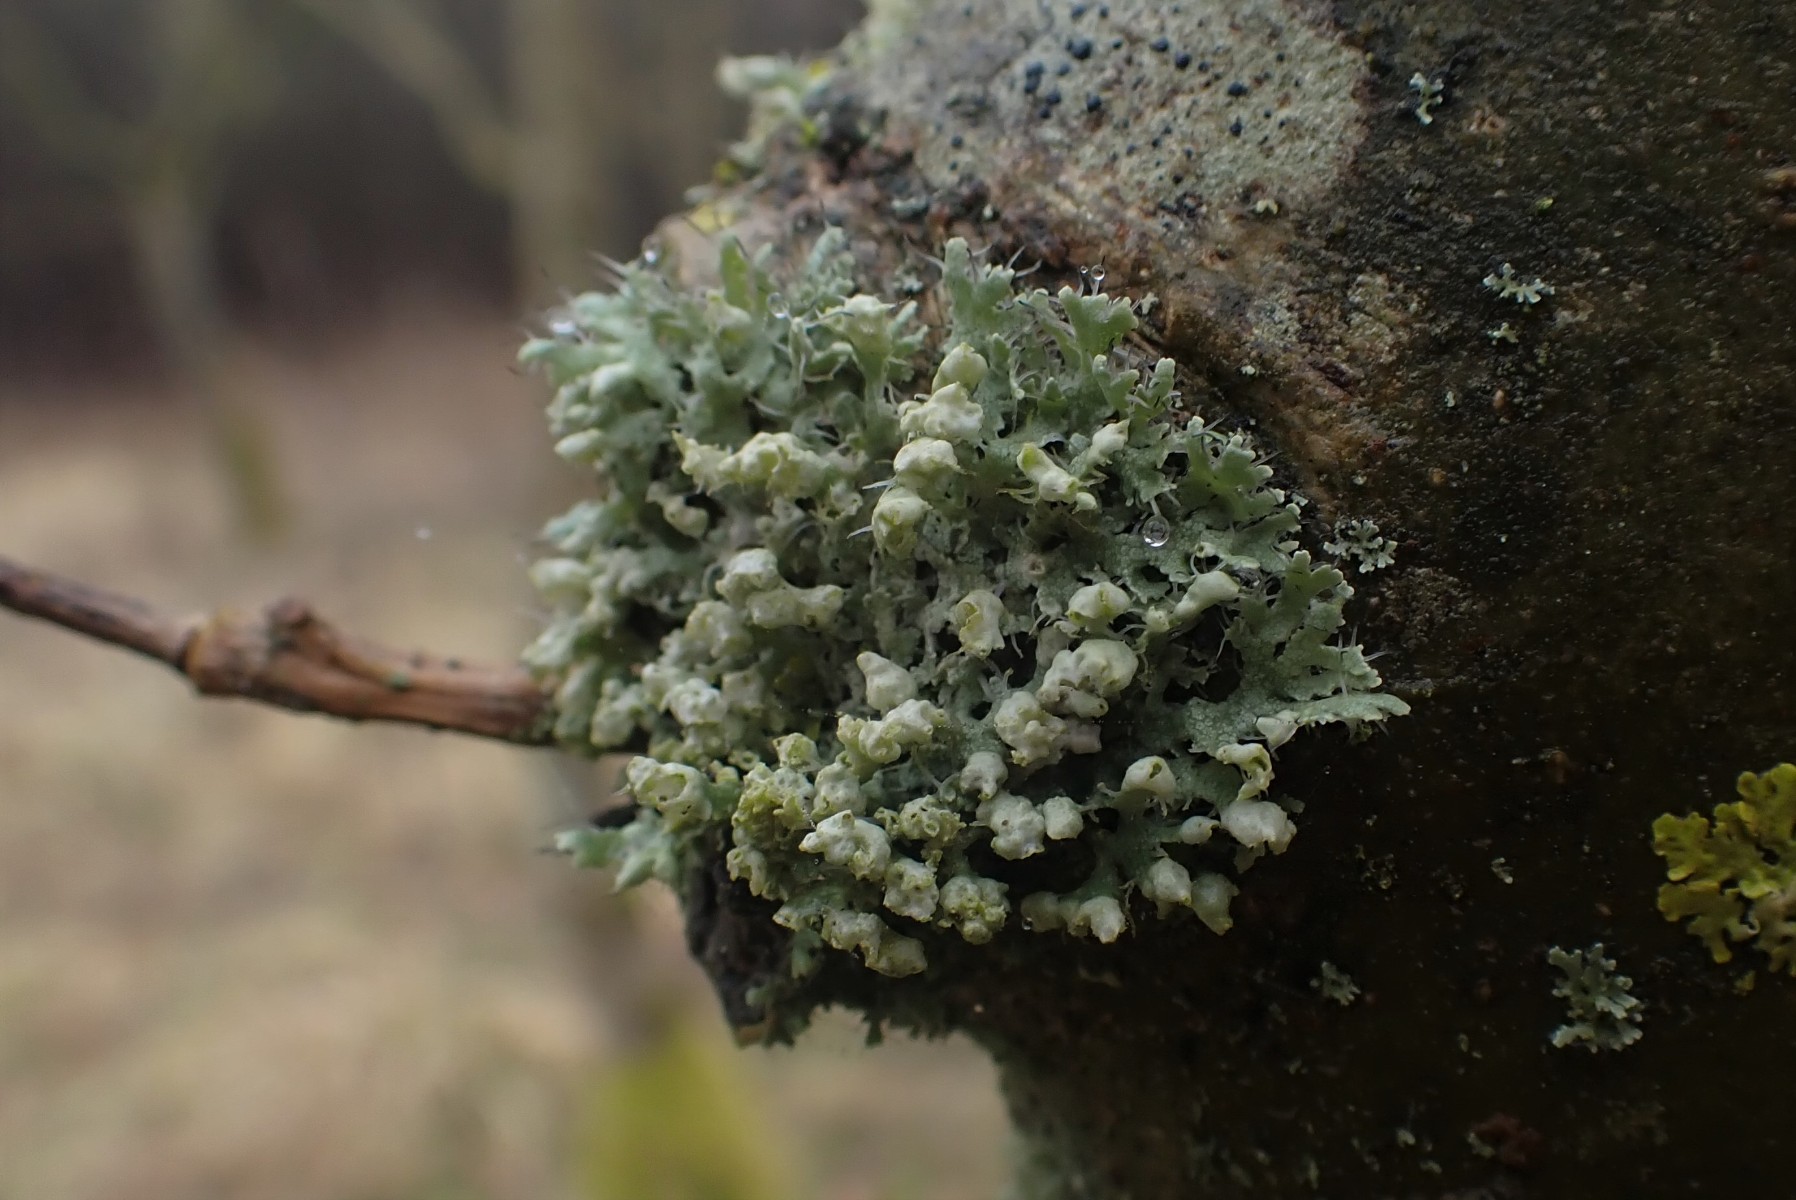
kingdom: Fungi
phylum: Ascomycota
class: Lecanoromycetes
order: Caliciales
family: Physciaceae
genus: Physcia
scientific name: Physcia adscendens
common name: hætte-rosetlav
